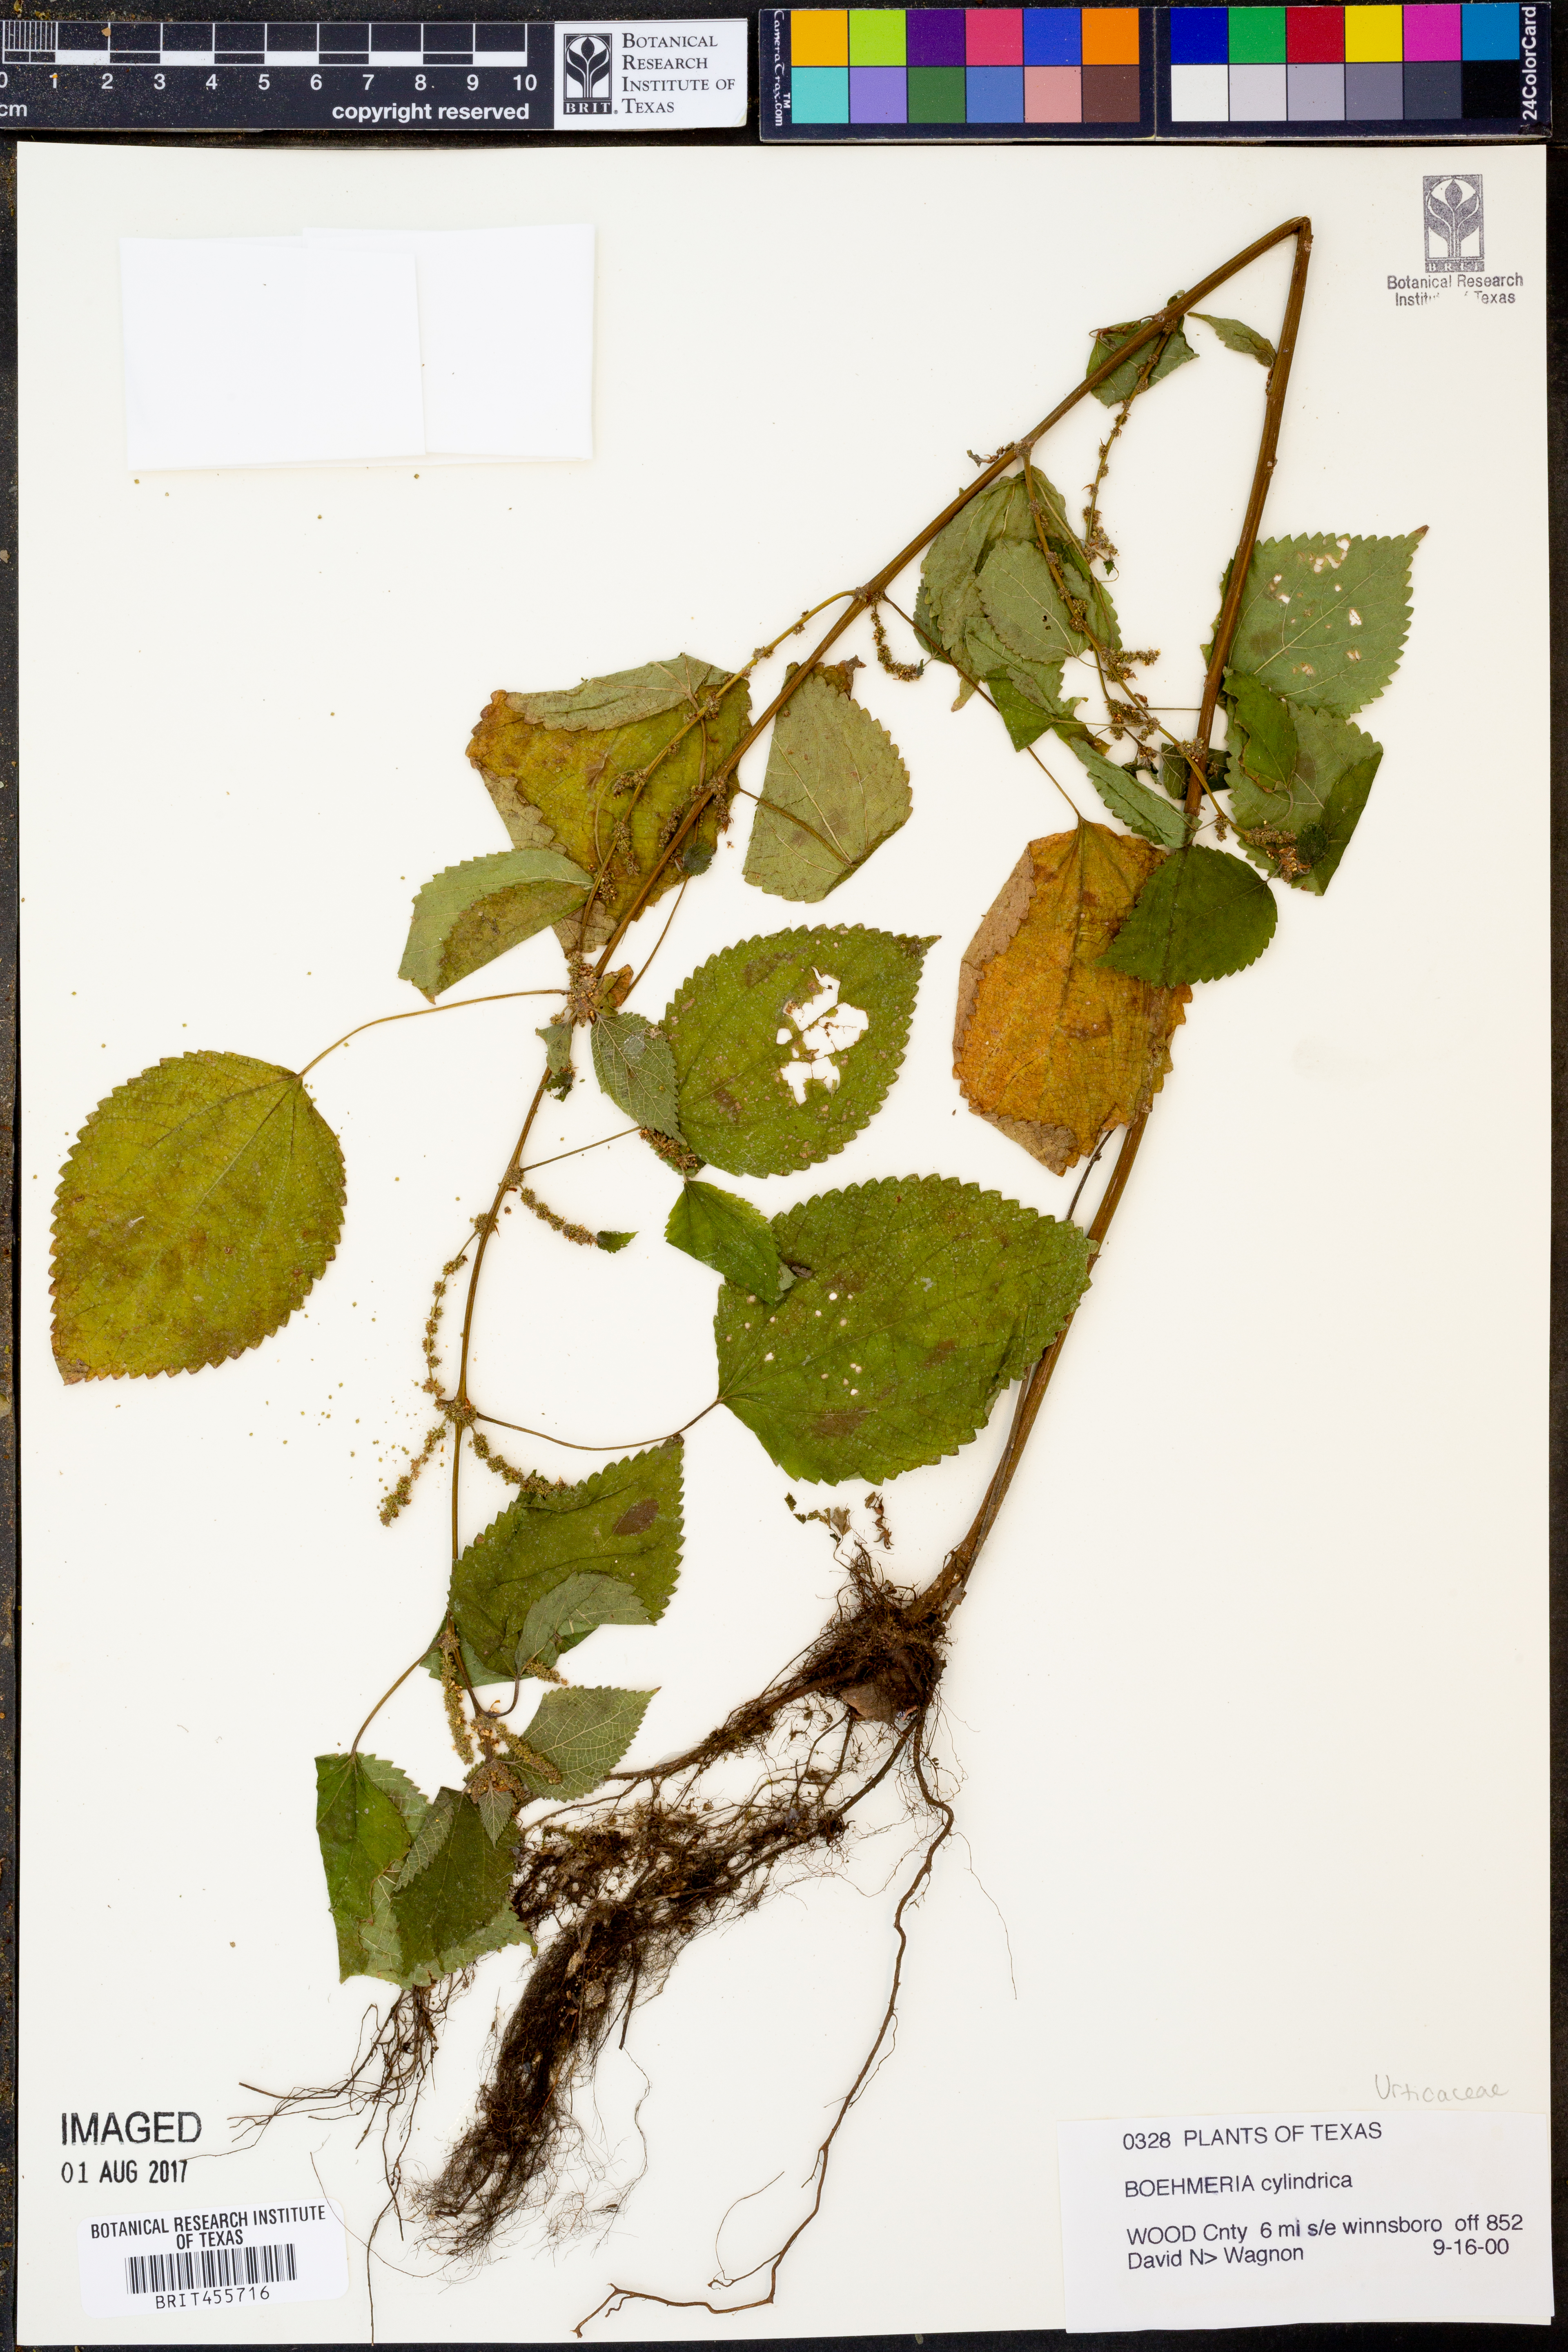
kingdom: Plantae
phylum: Tracheophyta
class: Magnoliopsida
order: Rosales
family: Urticaceae
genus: Boehmeria
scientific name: Boehmeria cylindrica
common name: Bog-hemp
